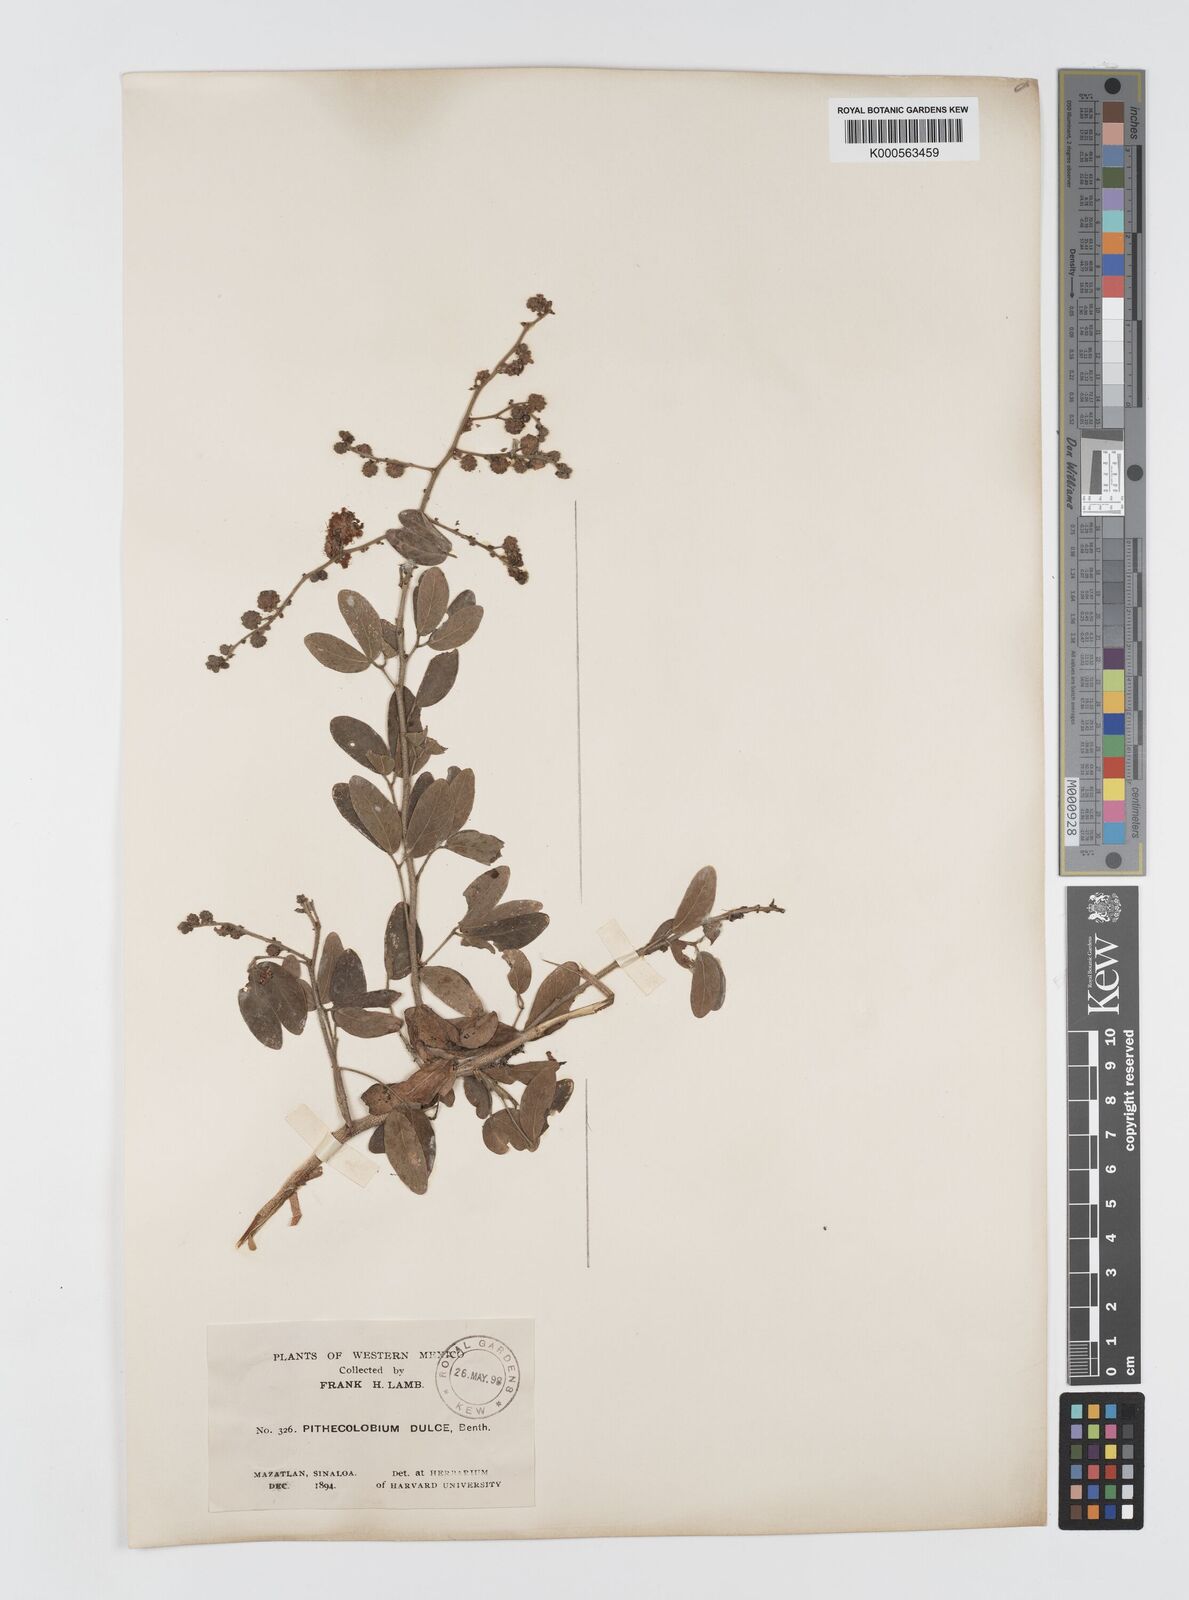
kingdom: Plantae
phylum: Tracheophyta
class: Magnoliopsida
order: Fabales
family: Fabaceae
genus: Pithecellobium
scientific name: Pithecellobium dulce
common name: Monkeypod
